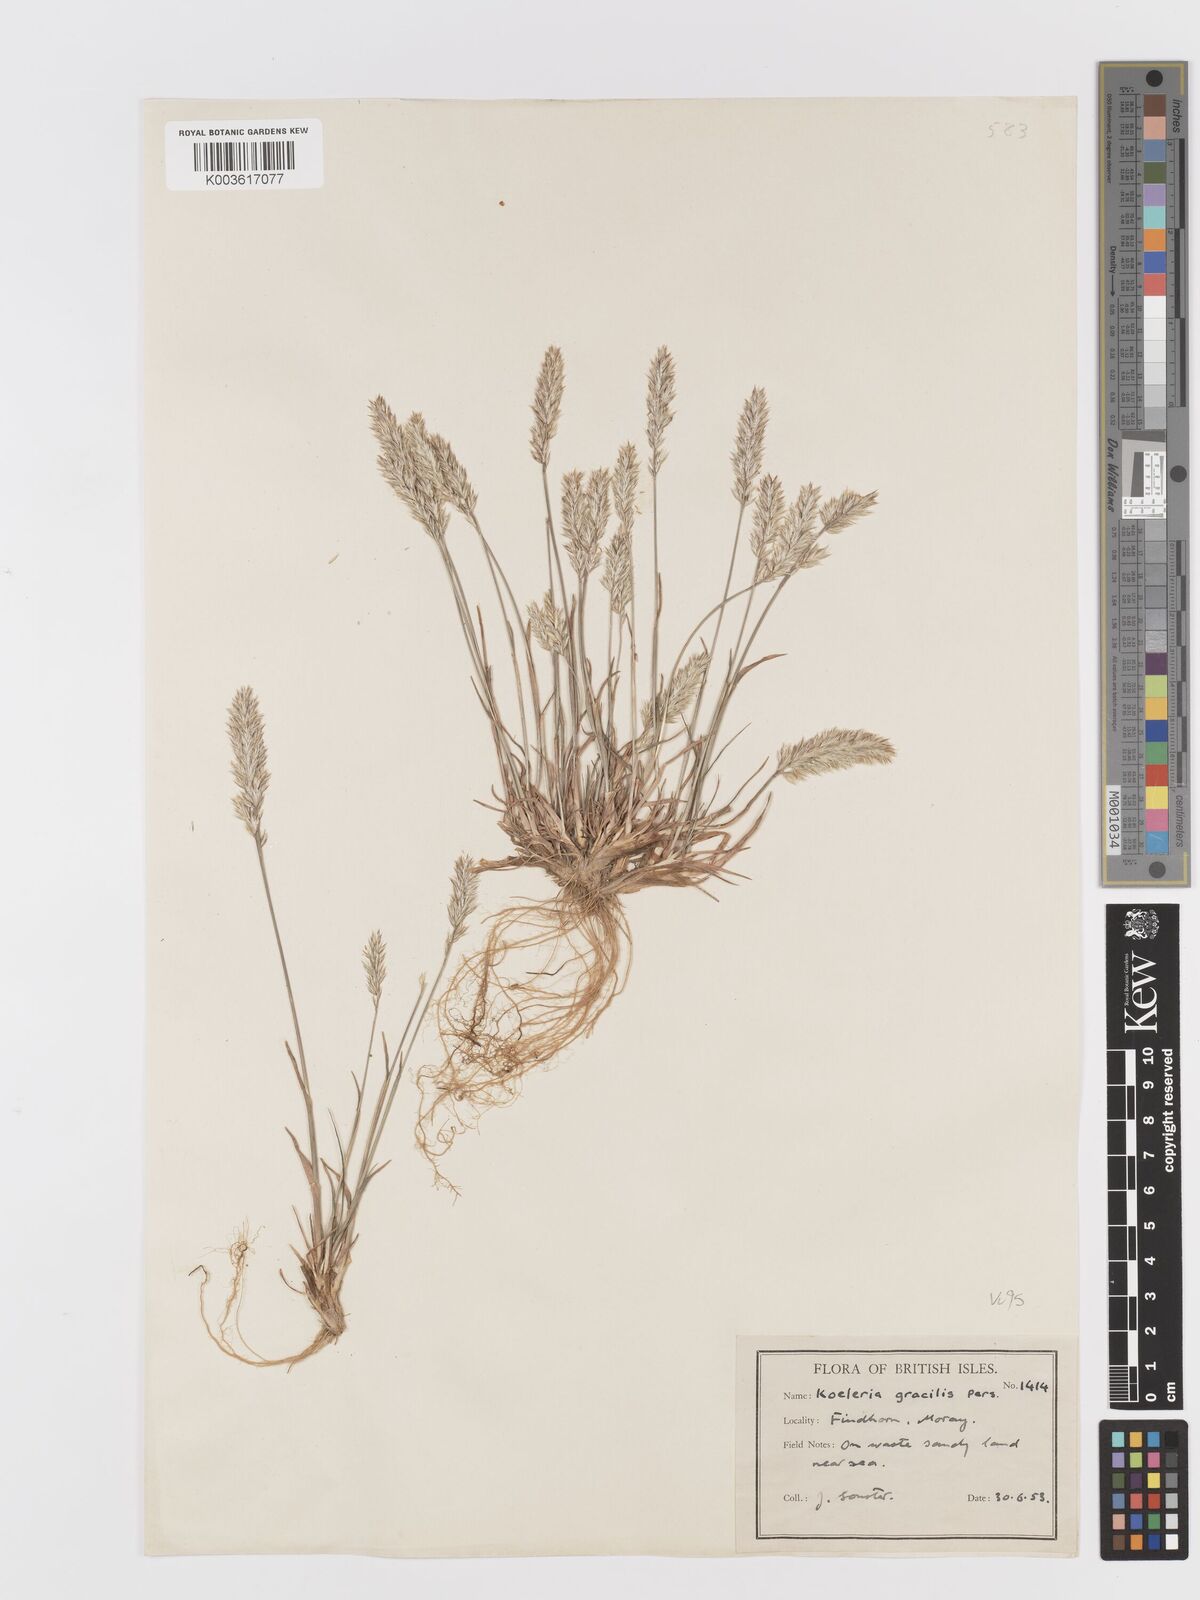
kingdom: Plantae
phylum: Tracheophyta
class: Liliopsida
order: Poales
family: Poaceae
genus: Koeleria
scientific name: Koeleria macrantha
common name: Crested hair-grass
